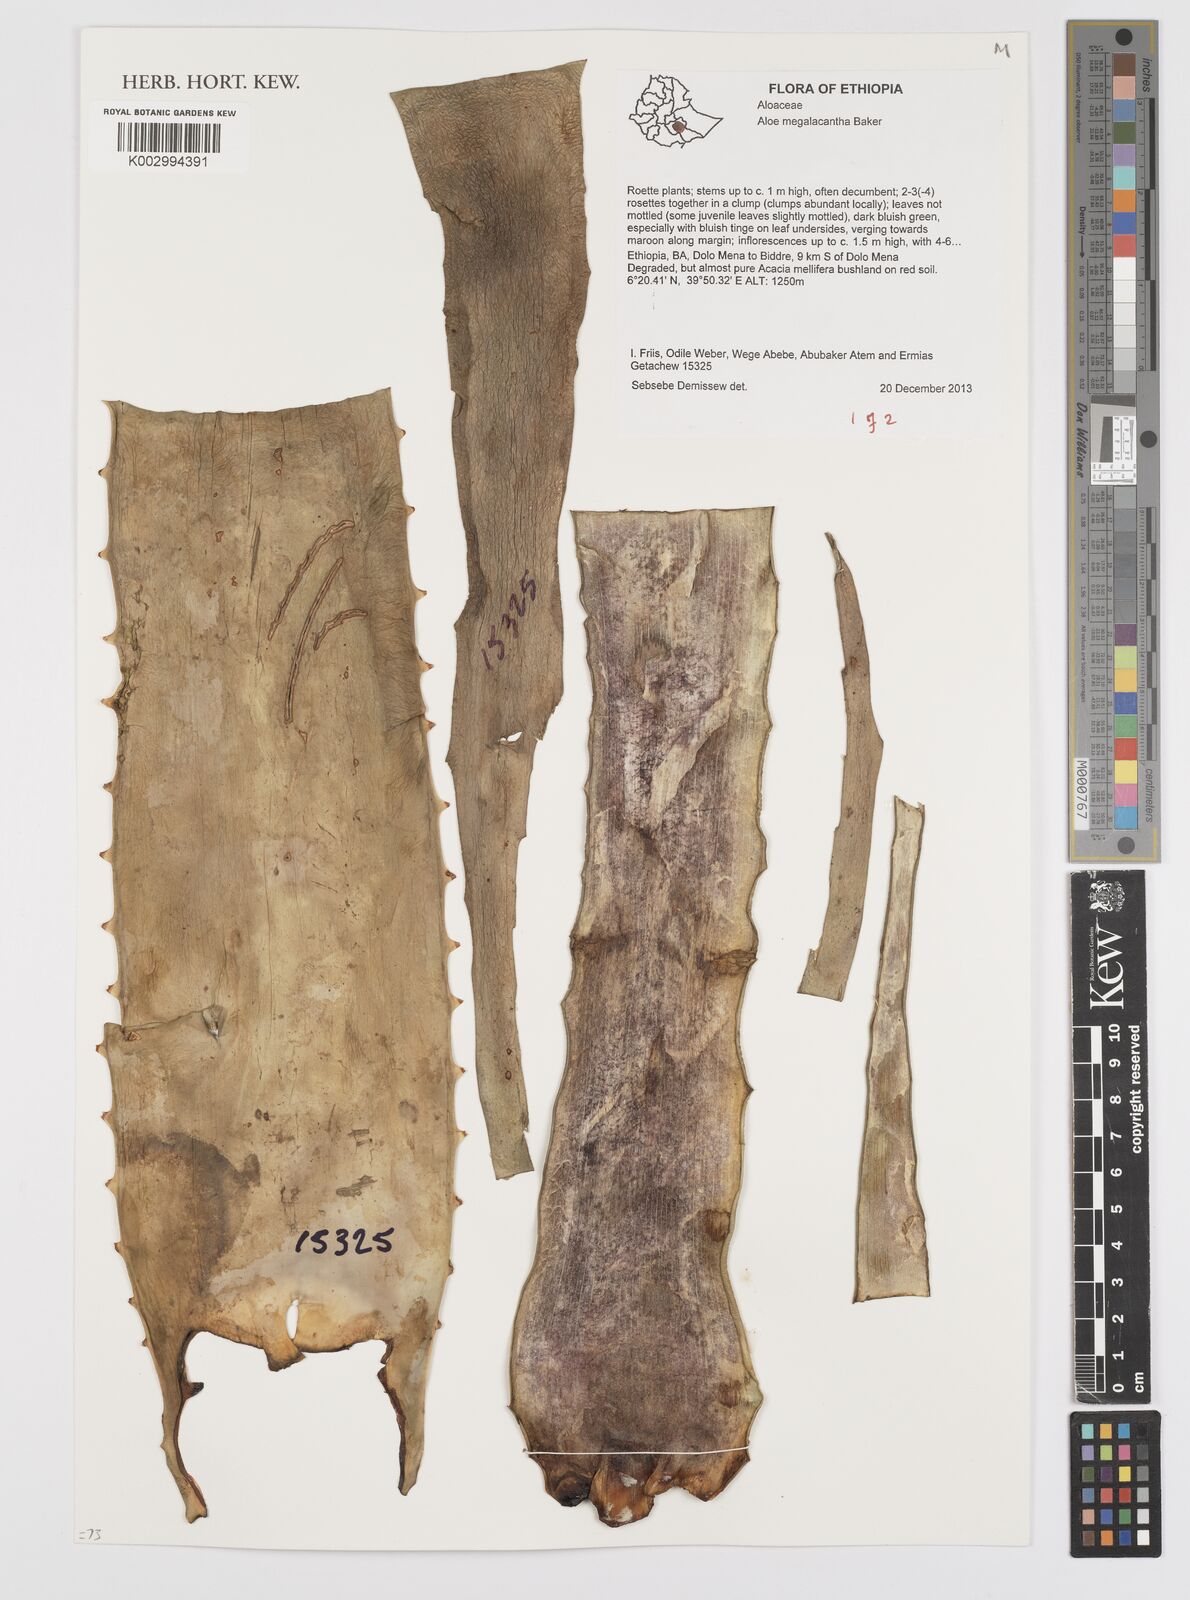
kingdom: Plantae
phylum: Tracheophyta
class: Liliopsida
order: Asparagales
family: Asphodelaceae
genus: Aloe
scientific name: Aloe megalacantha
